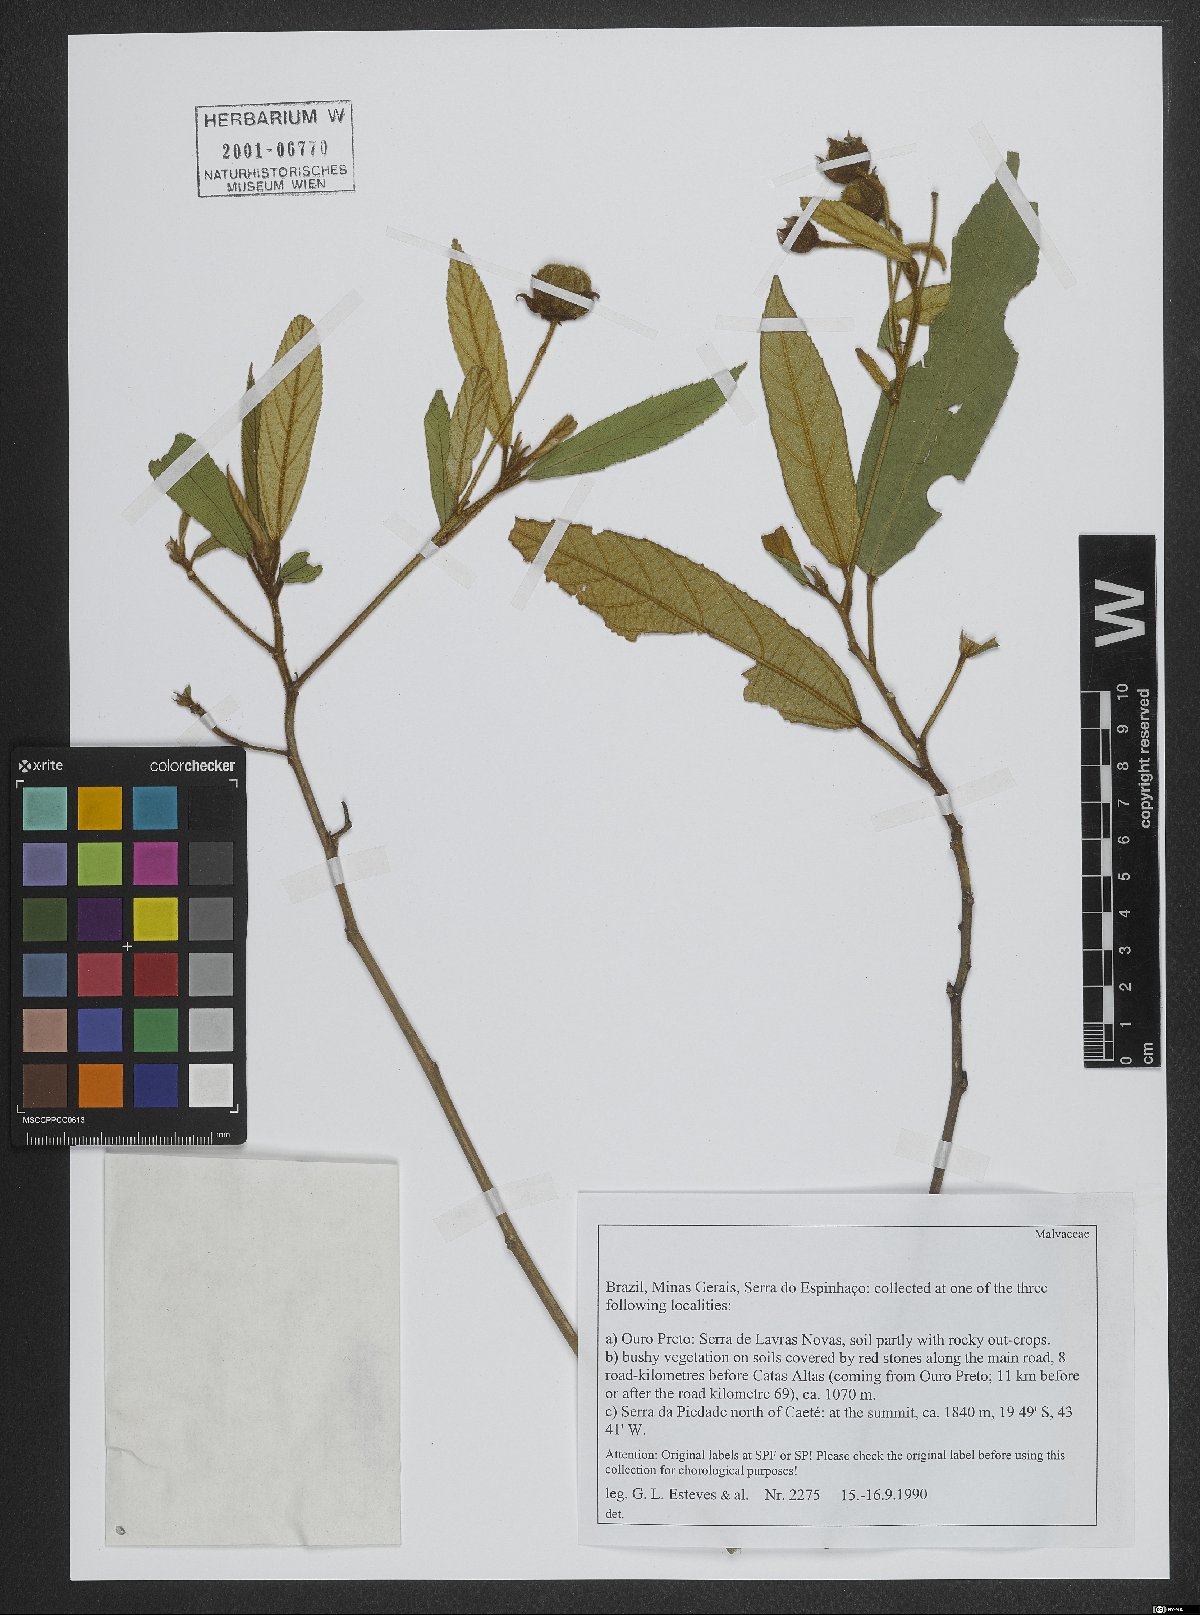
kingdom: Plantae
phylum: Tracheophyta
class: Magnoliopsida
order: Malvales
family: Malvaceae
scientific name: Malvaceae
